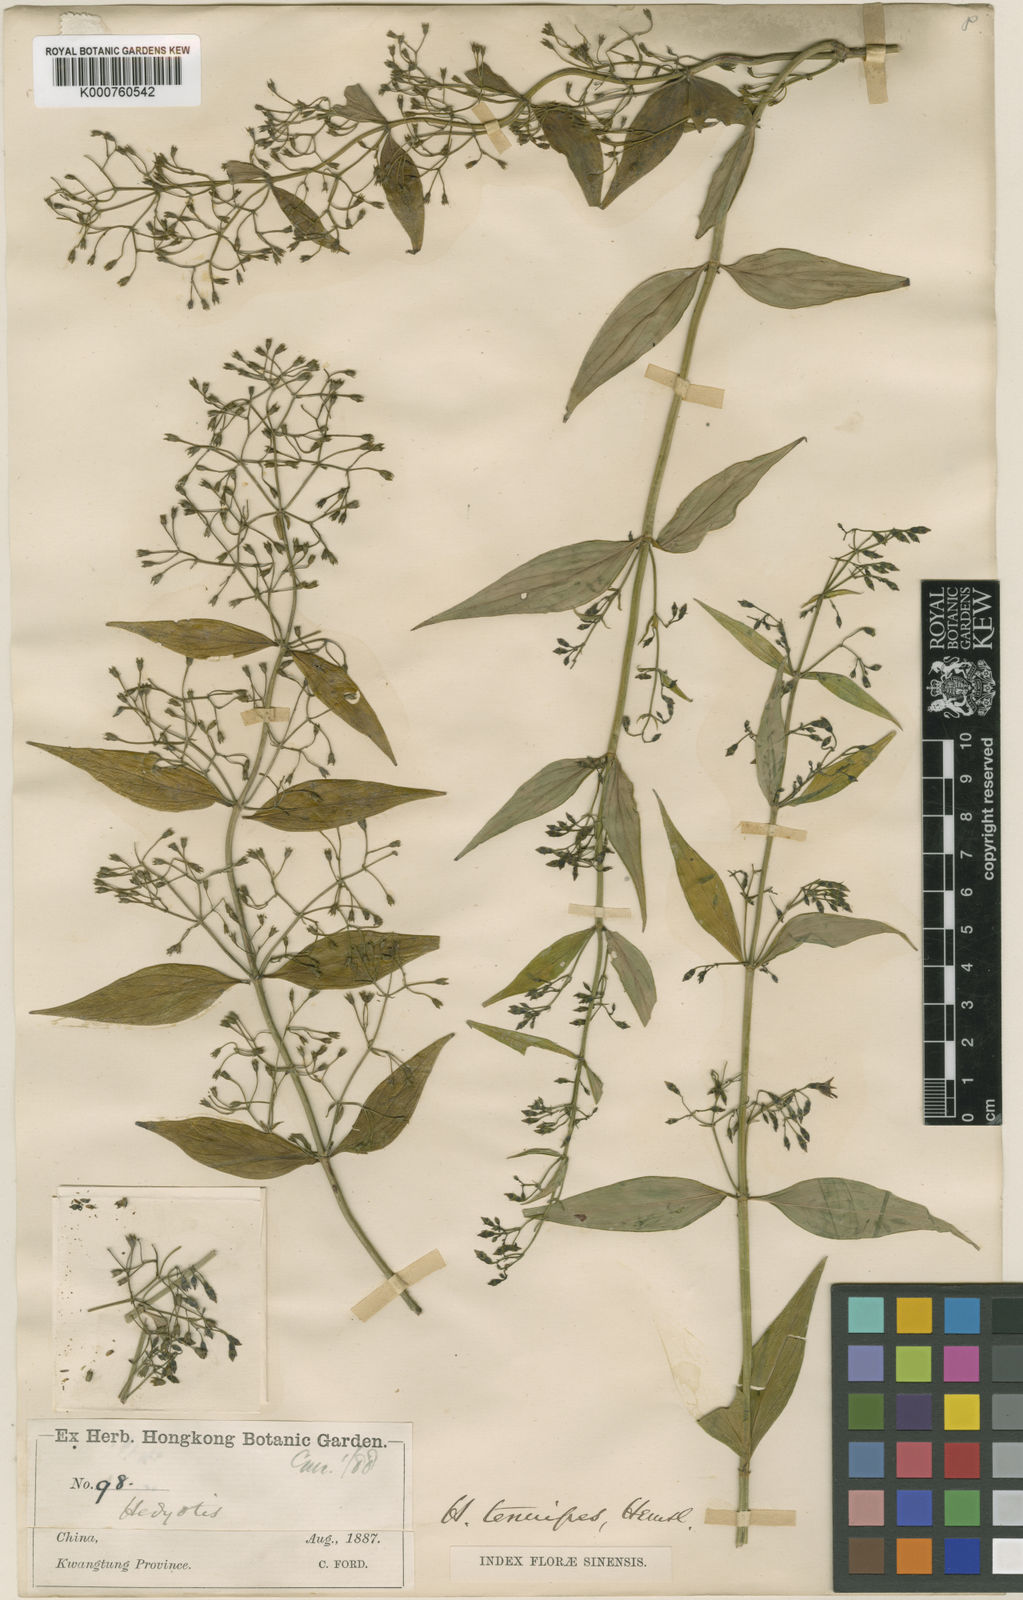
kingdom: Plantae
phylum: Tracheophyta
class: Magnoliopsida
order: Gentianales
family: Rubiaceae
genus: Hedyotis
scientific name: Hedyotis tenuipes
